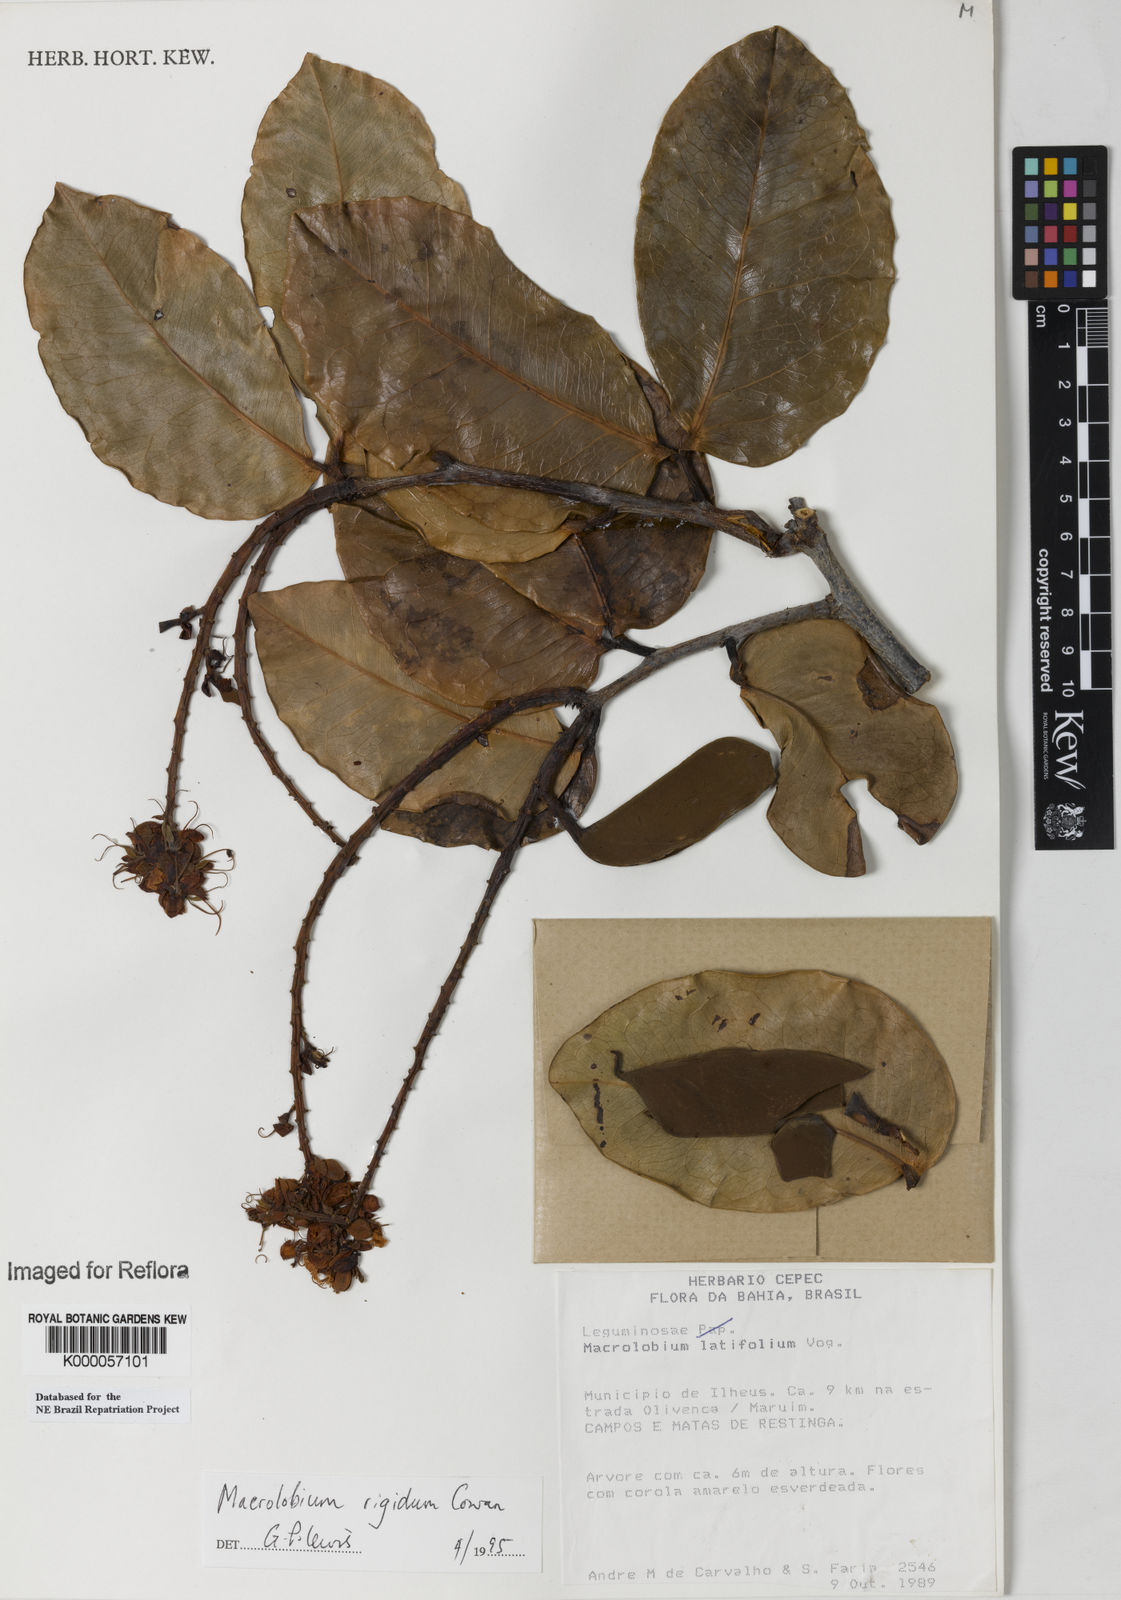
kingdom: Plantae
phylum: Tracheophyta
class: Magnoliopsida
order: Fabales
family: Fabaceae
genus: Macrolobium
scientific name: Macrolobium rigidum
